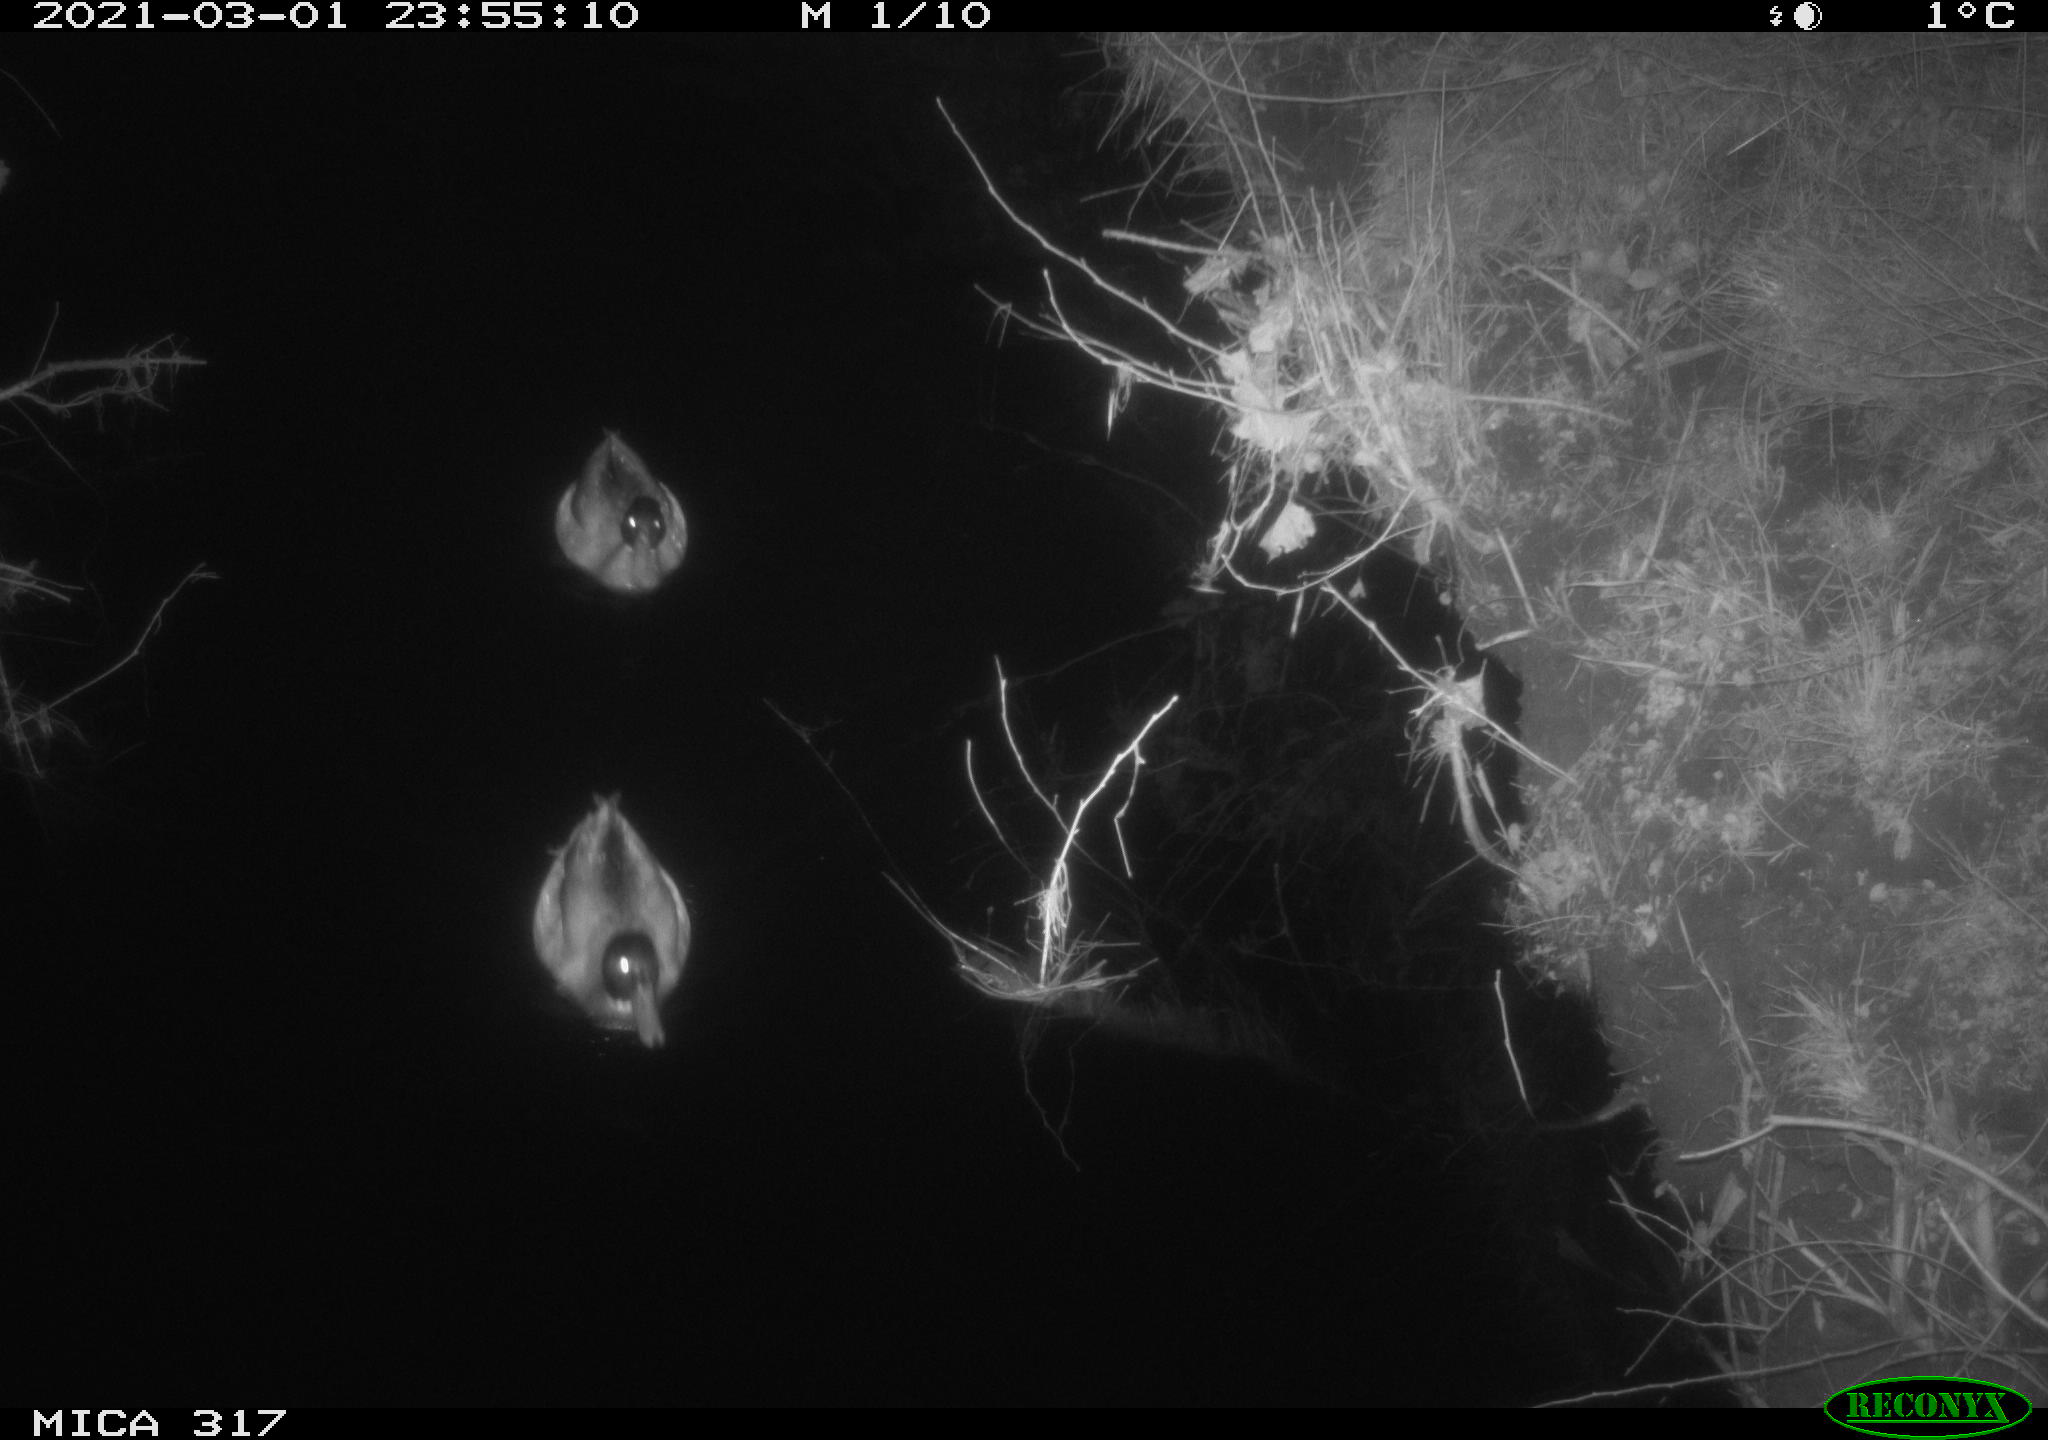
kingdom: Animalia
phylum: Chordata
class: Aves
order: Anseriformes
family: Anatidae
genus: Anas
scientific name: Anas platyrhynchos
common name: Mallard
